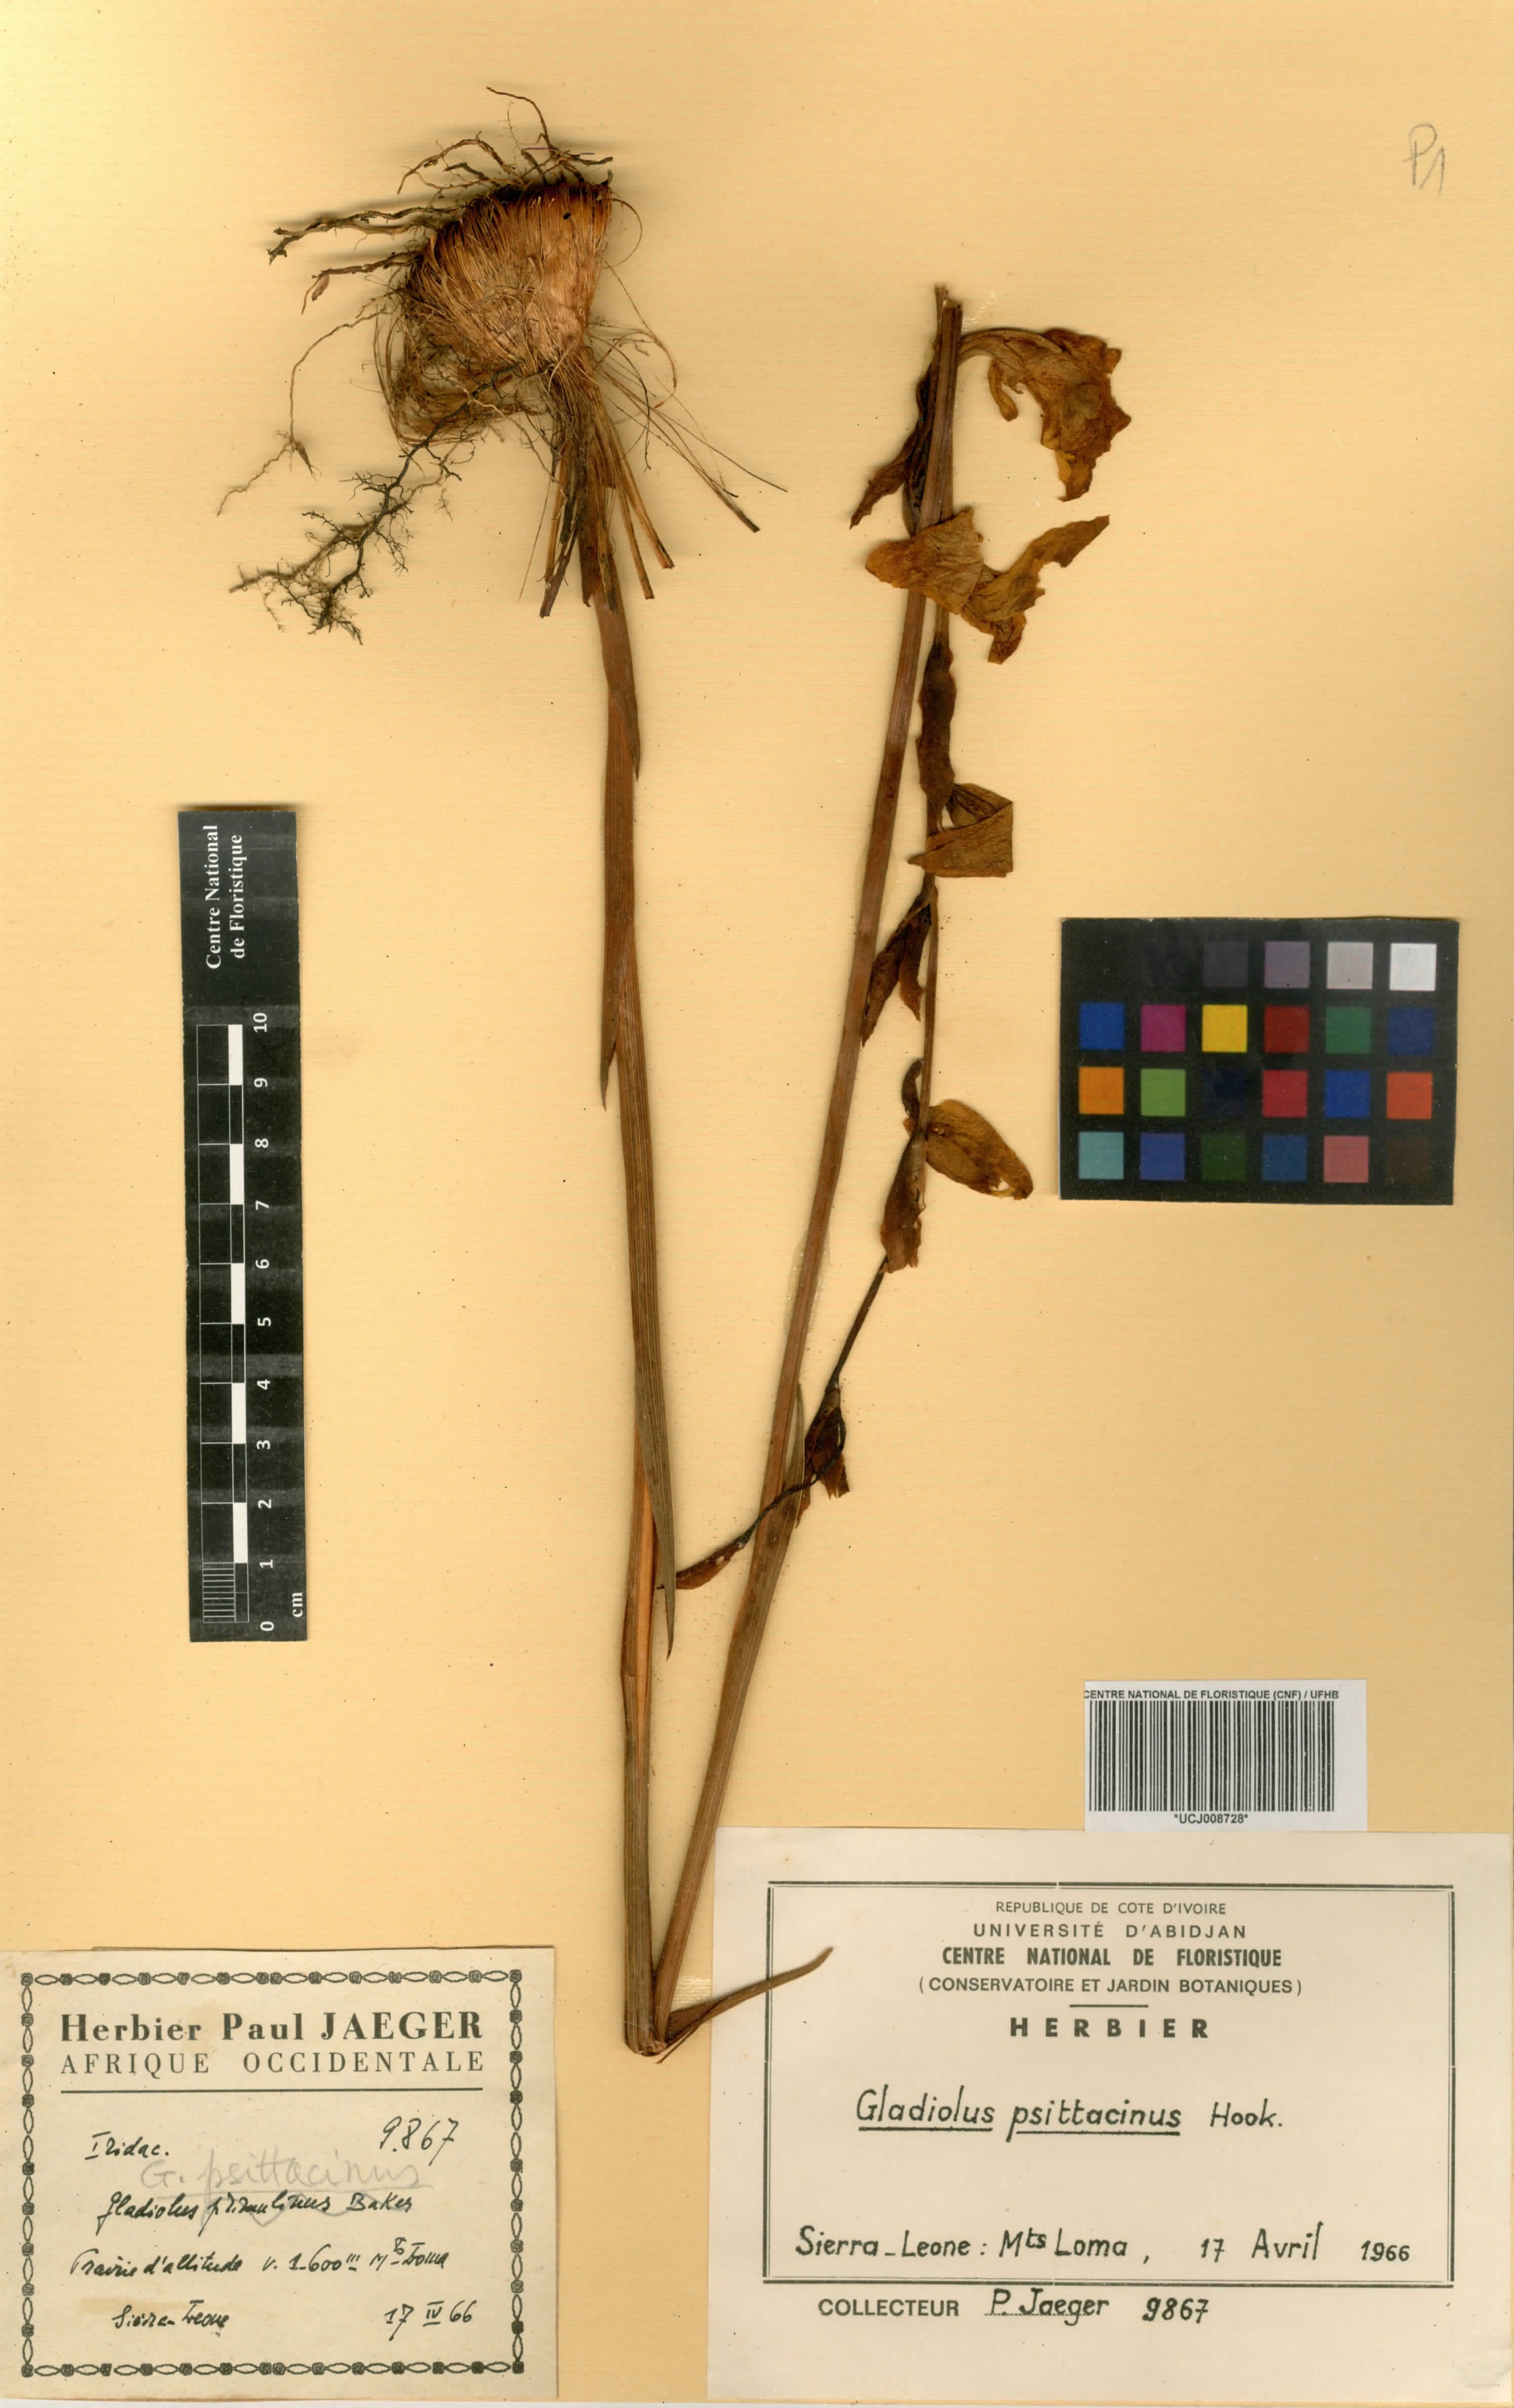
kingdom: Plantae
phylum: Tracheophyta
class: Liliopsida
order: Asparagales
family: Iridaceae
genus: Gladiolus
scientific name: Gladiolus dalenii
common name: Cornflag
